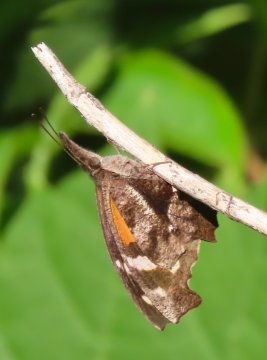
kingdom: Animalia
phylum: Arthropoda
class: Insecta
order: Lepidoptera
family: Nymphalidae
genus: Libytheana
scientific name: Libytheana carinenta
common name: American Snout
